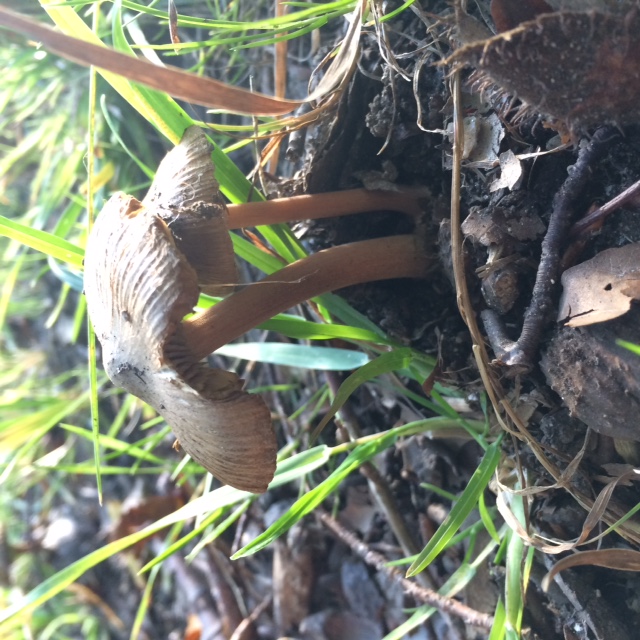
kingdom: Fungi
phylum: Basidiomycota
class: Agaricomycetes
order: Agaricales
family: Inocybaceae
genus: Inocybe
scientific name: Inocybe asterospora
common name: stjernesporet trævlhat
